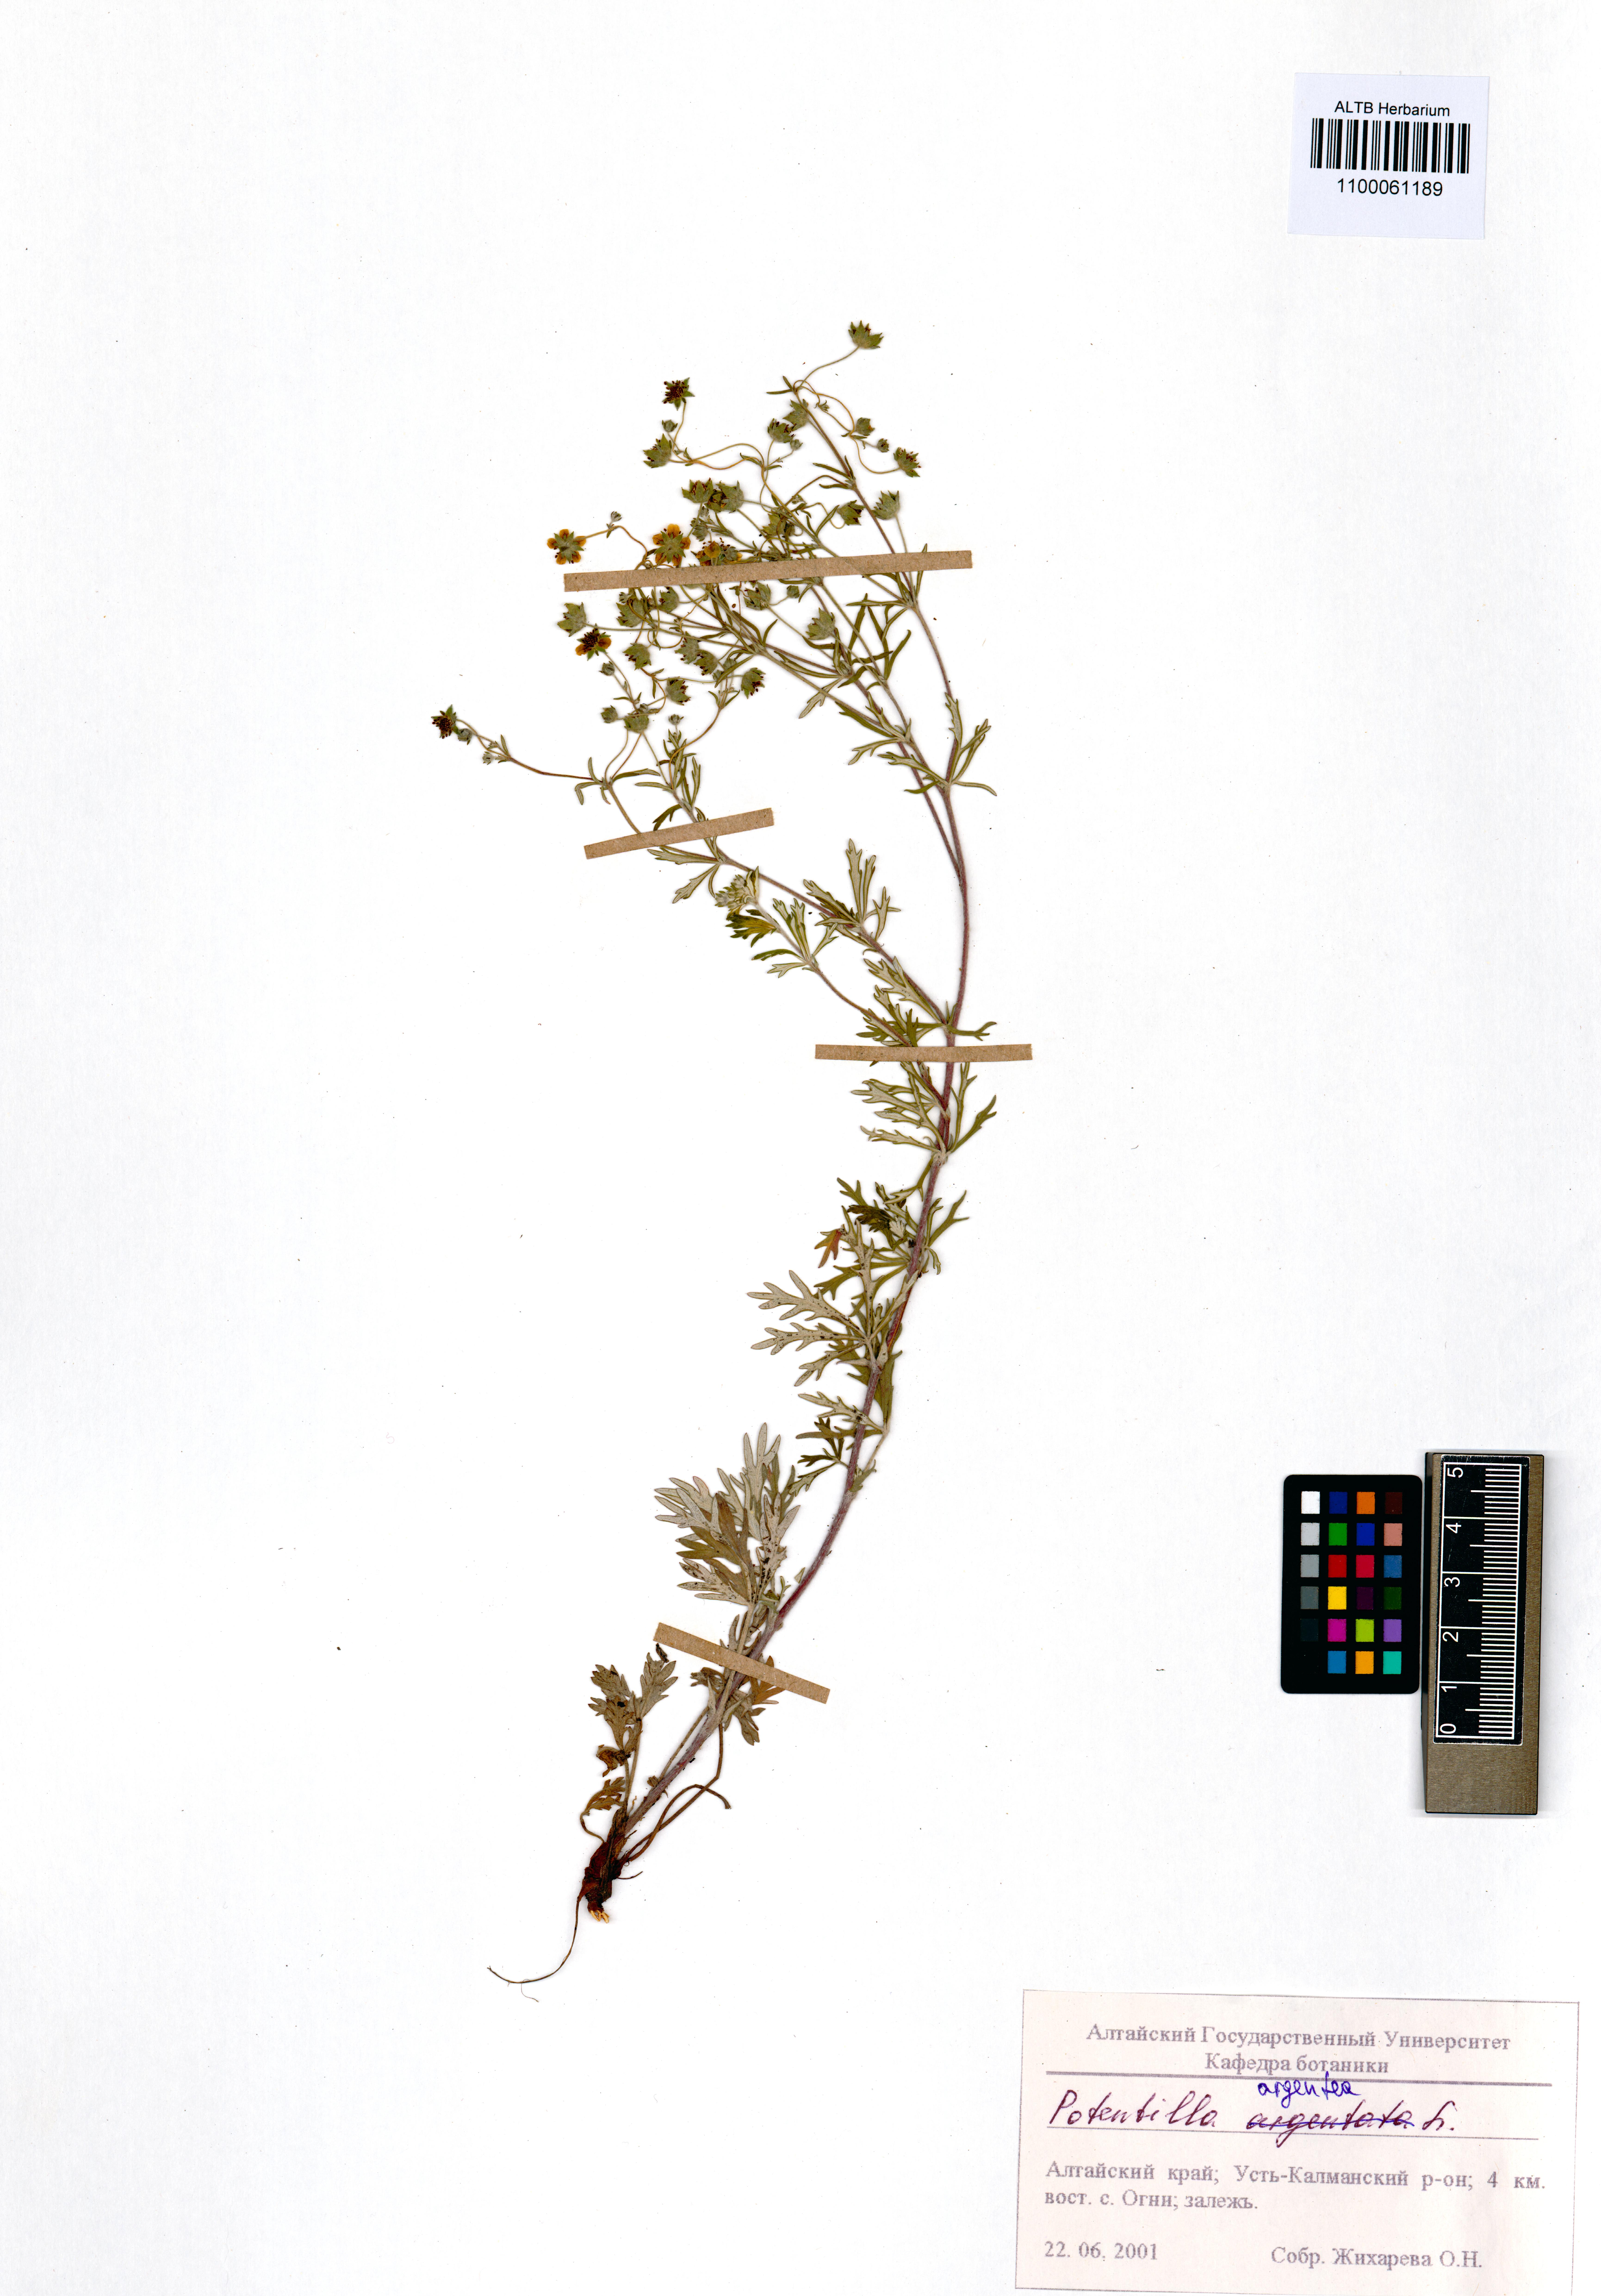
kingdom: Plantae
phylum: Tracheophyta
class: Magnoliopsida
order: Rosales
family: Rosaceae
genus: Potentilla
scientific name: Potentilla argentea
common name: Hoary cinquefoil
